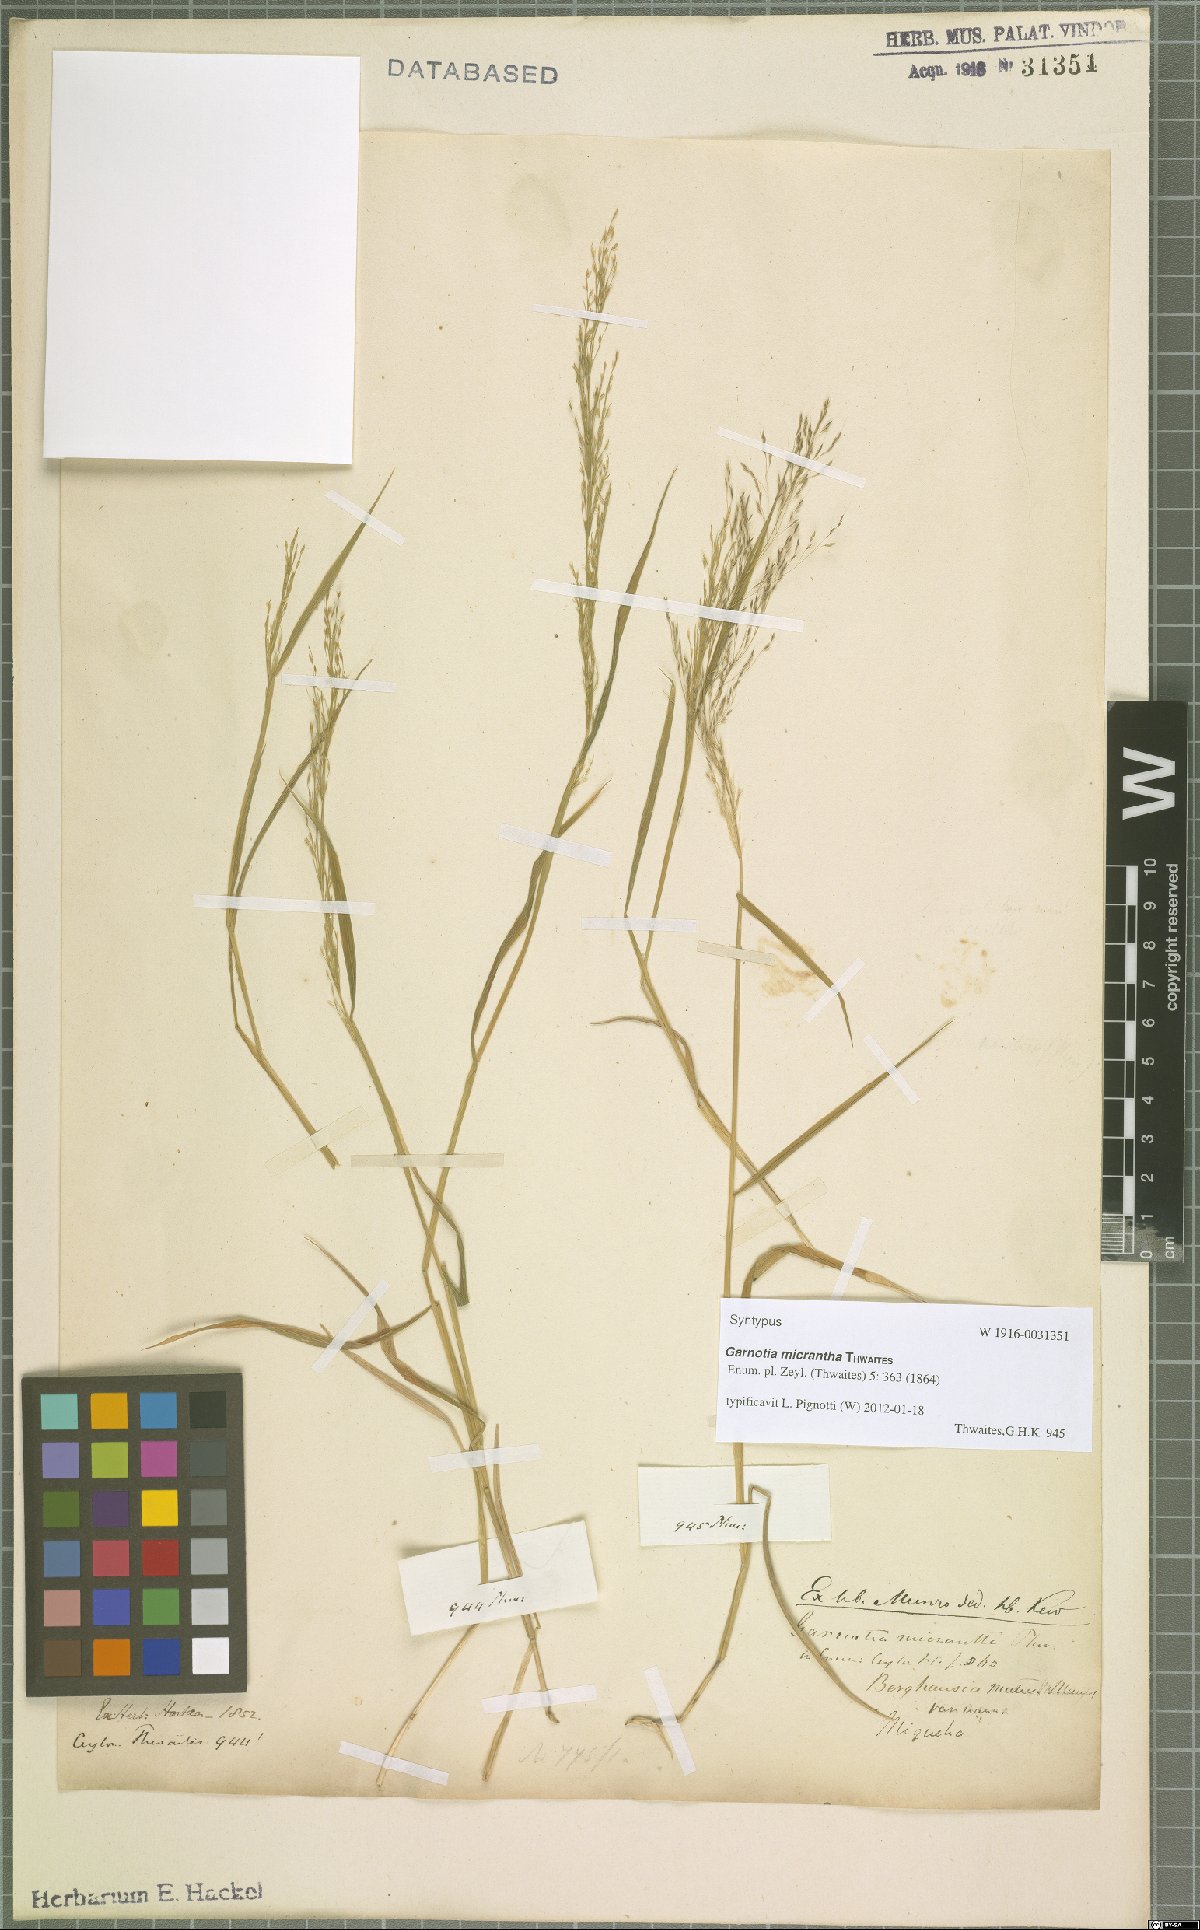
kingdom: Plantae
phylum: Tracheophyta
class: Liliopsida
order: Poales
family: Poaceae
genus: Garnotia
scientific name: Garnotia micrantha
